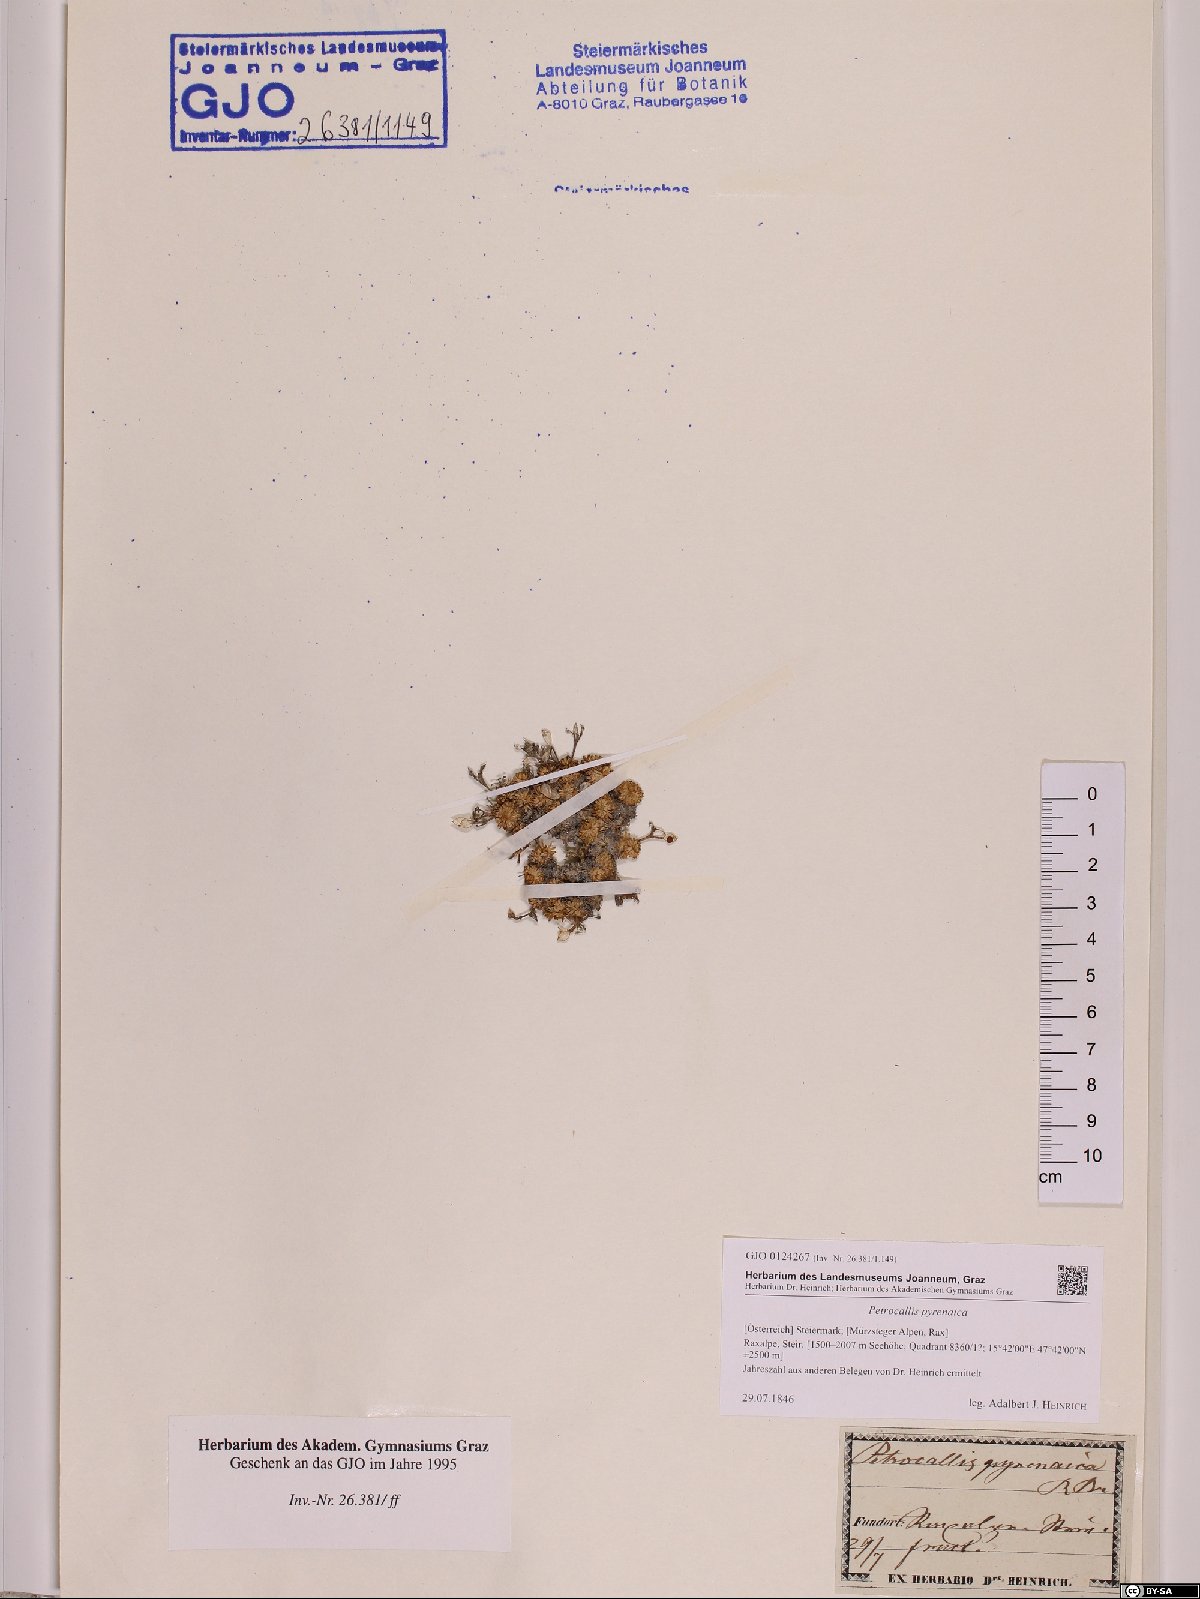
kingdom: Plantae
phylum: Tracheophyta
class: Magnoliopsida
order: Brassicales
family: Brassicaceae
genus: Petrocallis
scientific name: Petrocallis pyrenaica
